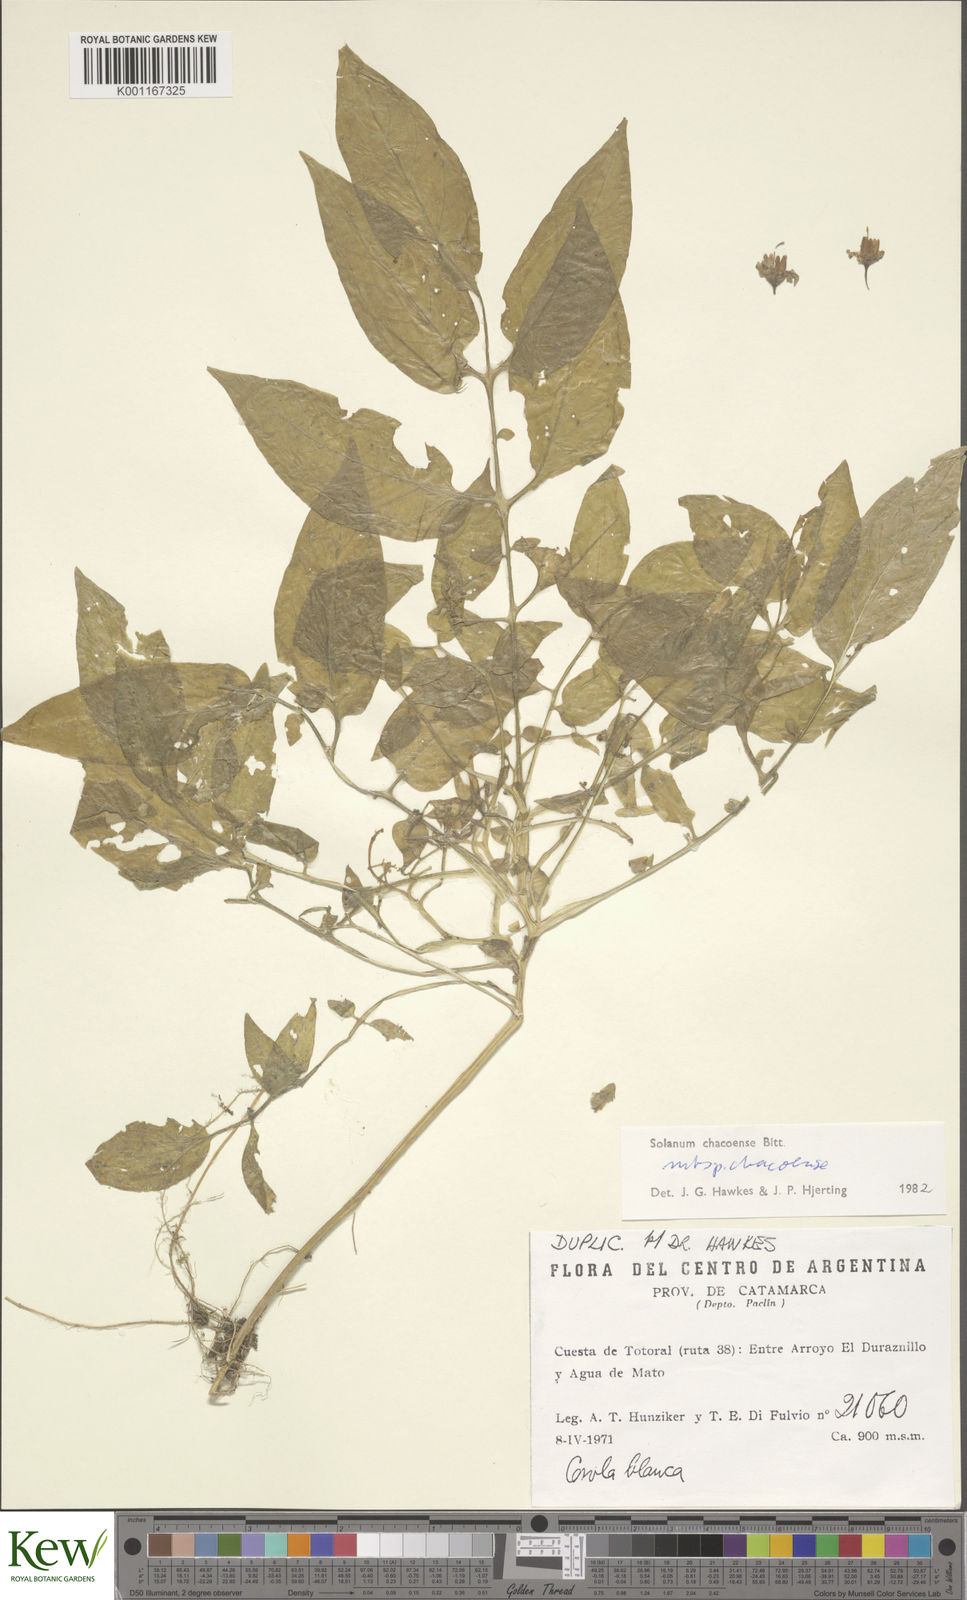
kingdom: Plantae
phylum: Tracheophyta
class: Magnoliopsida
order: Solanales
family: Solanaceae
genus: Solanum
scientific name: Solanum chacoense
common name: Chaco potato
